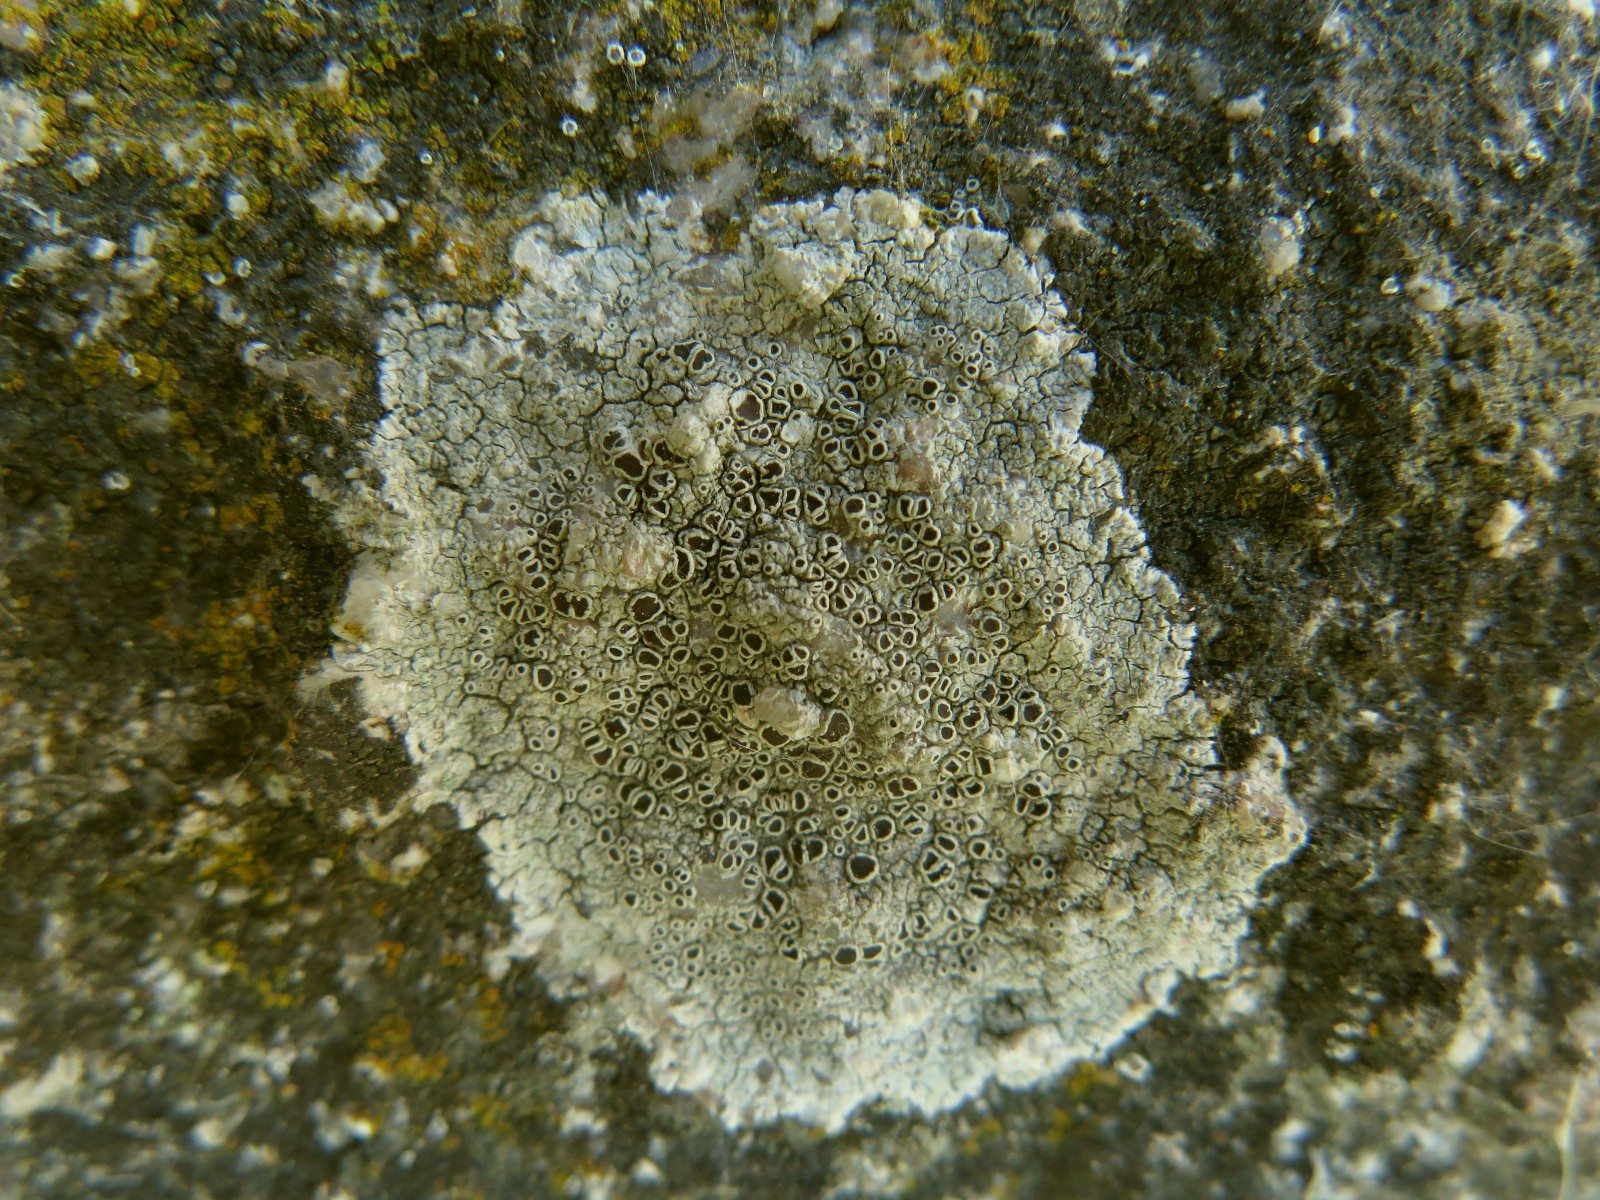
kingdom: Fungi
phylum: Ascomycota
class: Lecanoromycetes
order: Lecanorales
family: Tephromelataceae
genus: Tephromela
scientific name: Tephromela atra
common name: sortfrugtet kantskivelav
